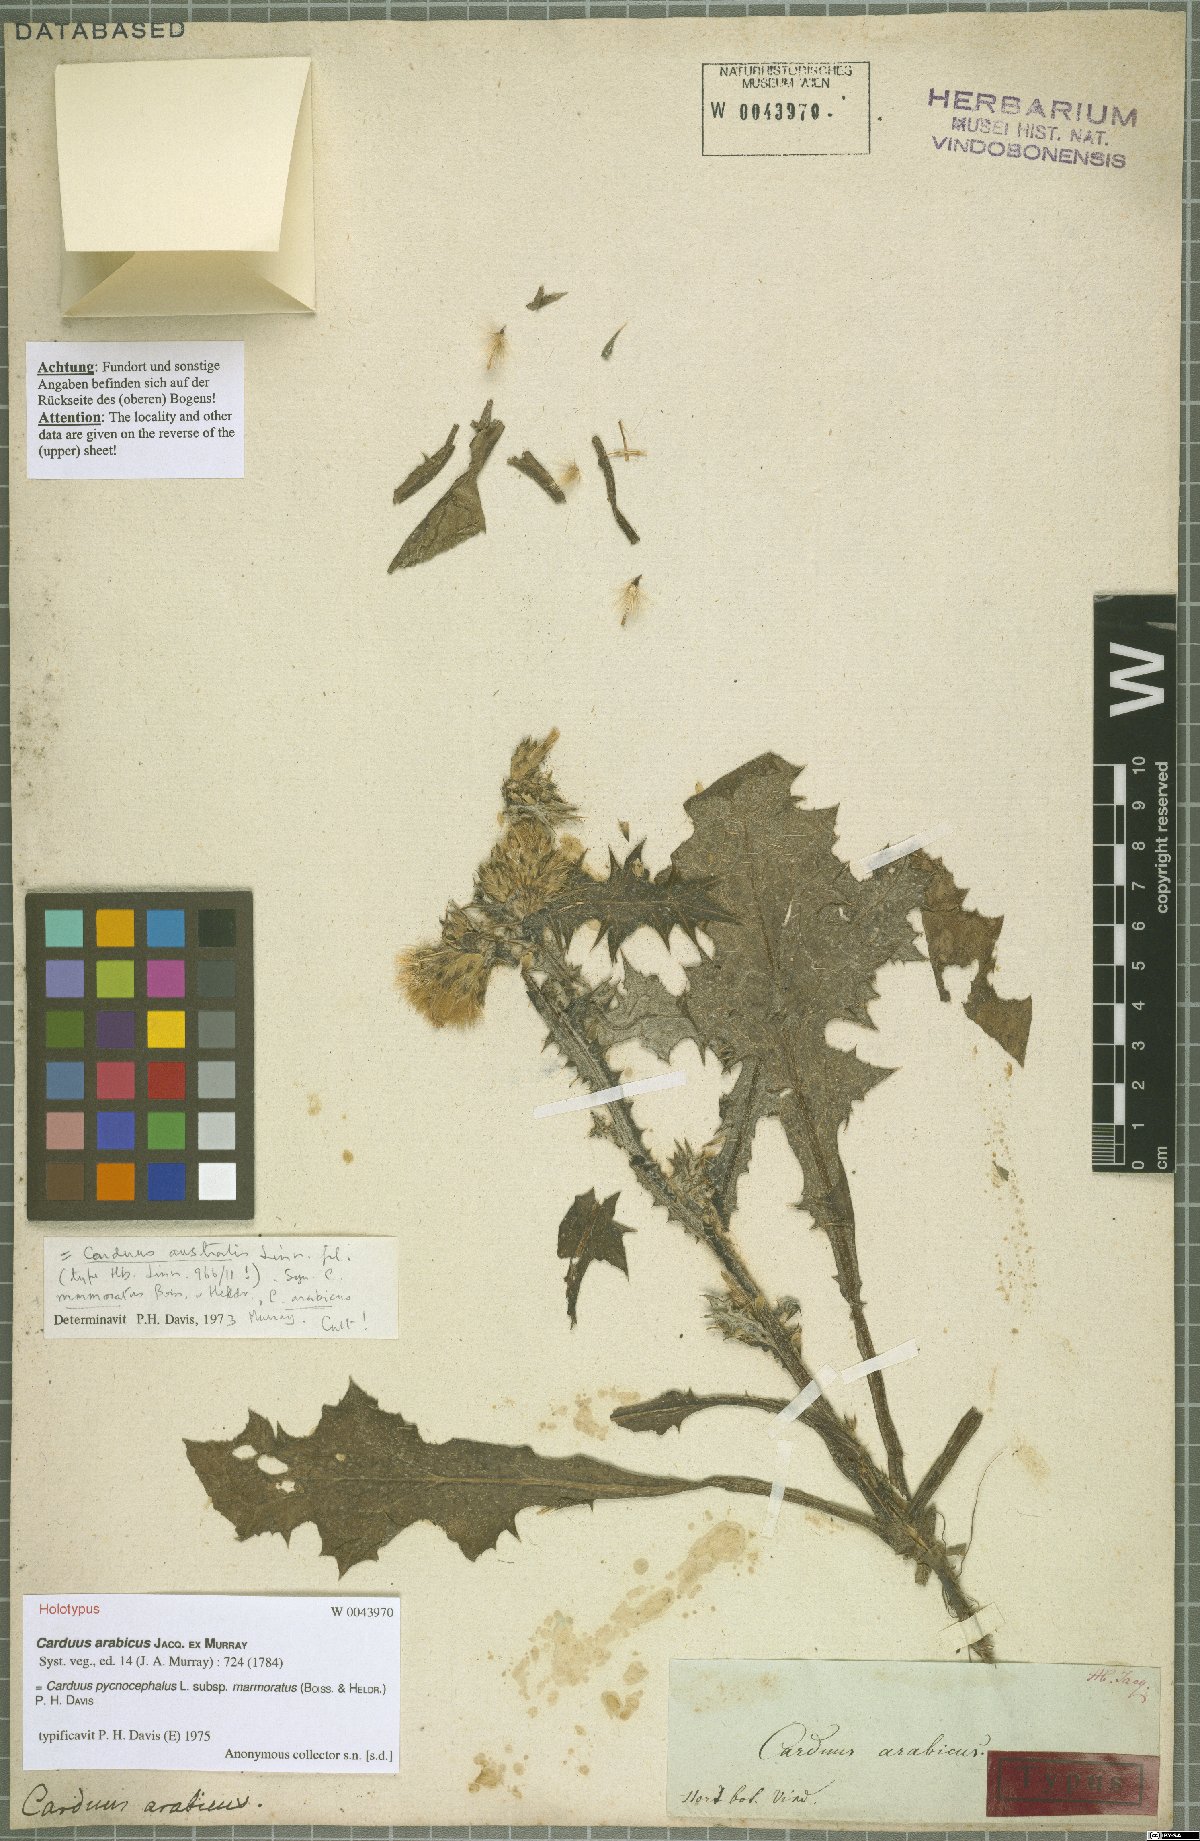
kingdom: Plantae
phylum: Tracheophyta
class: Magnoliopsida
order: Asterales
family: Asteraceae
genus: Carduus
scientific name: Carduus arabicus
